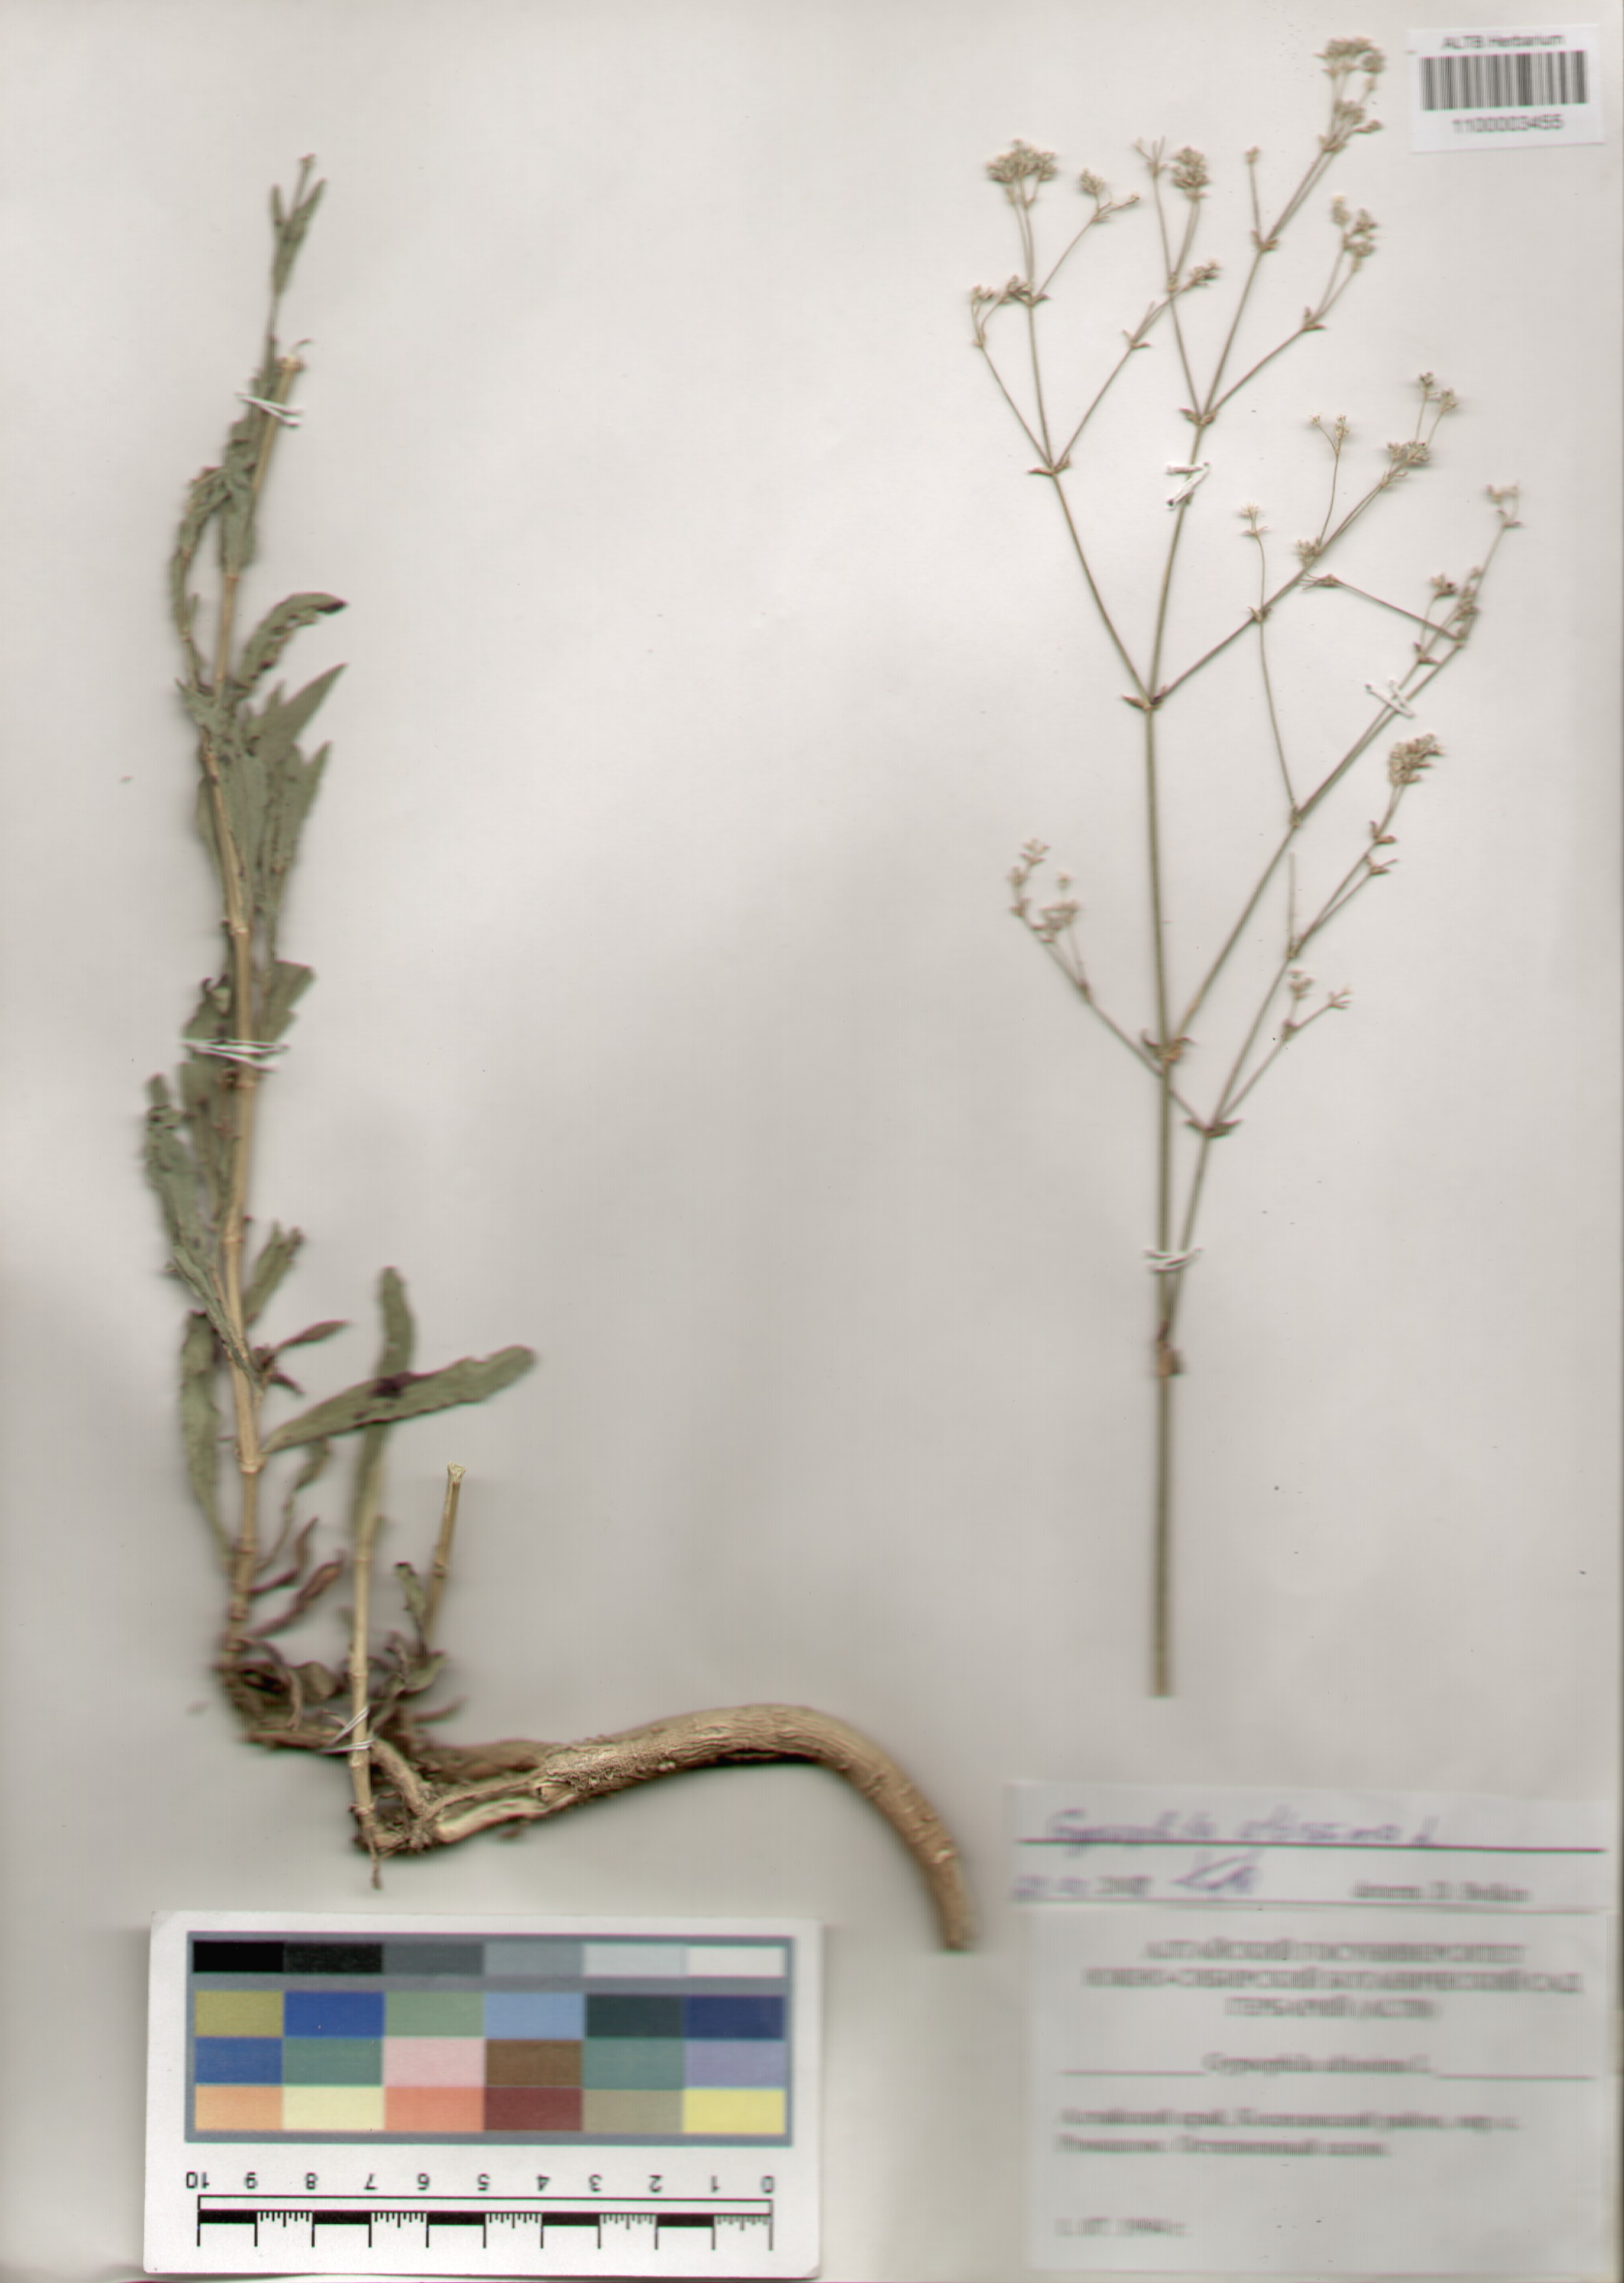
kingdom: Plantae
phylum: Tracheophyta
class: Magnoliopsida
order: Caryophyllales
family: Caryophyllaceae
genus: Gypsophila
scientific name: Gypsophila altissima
